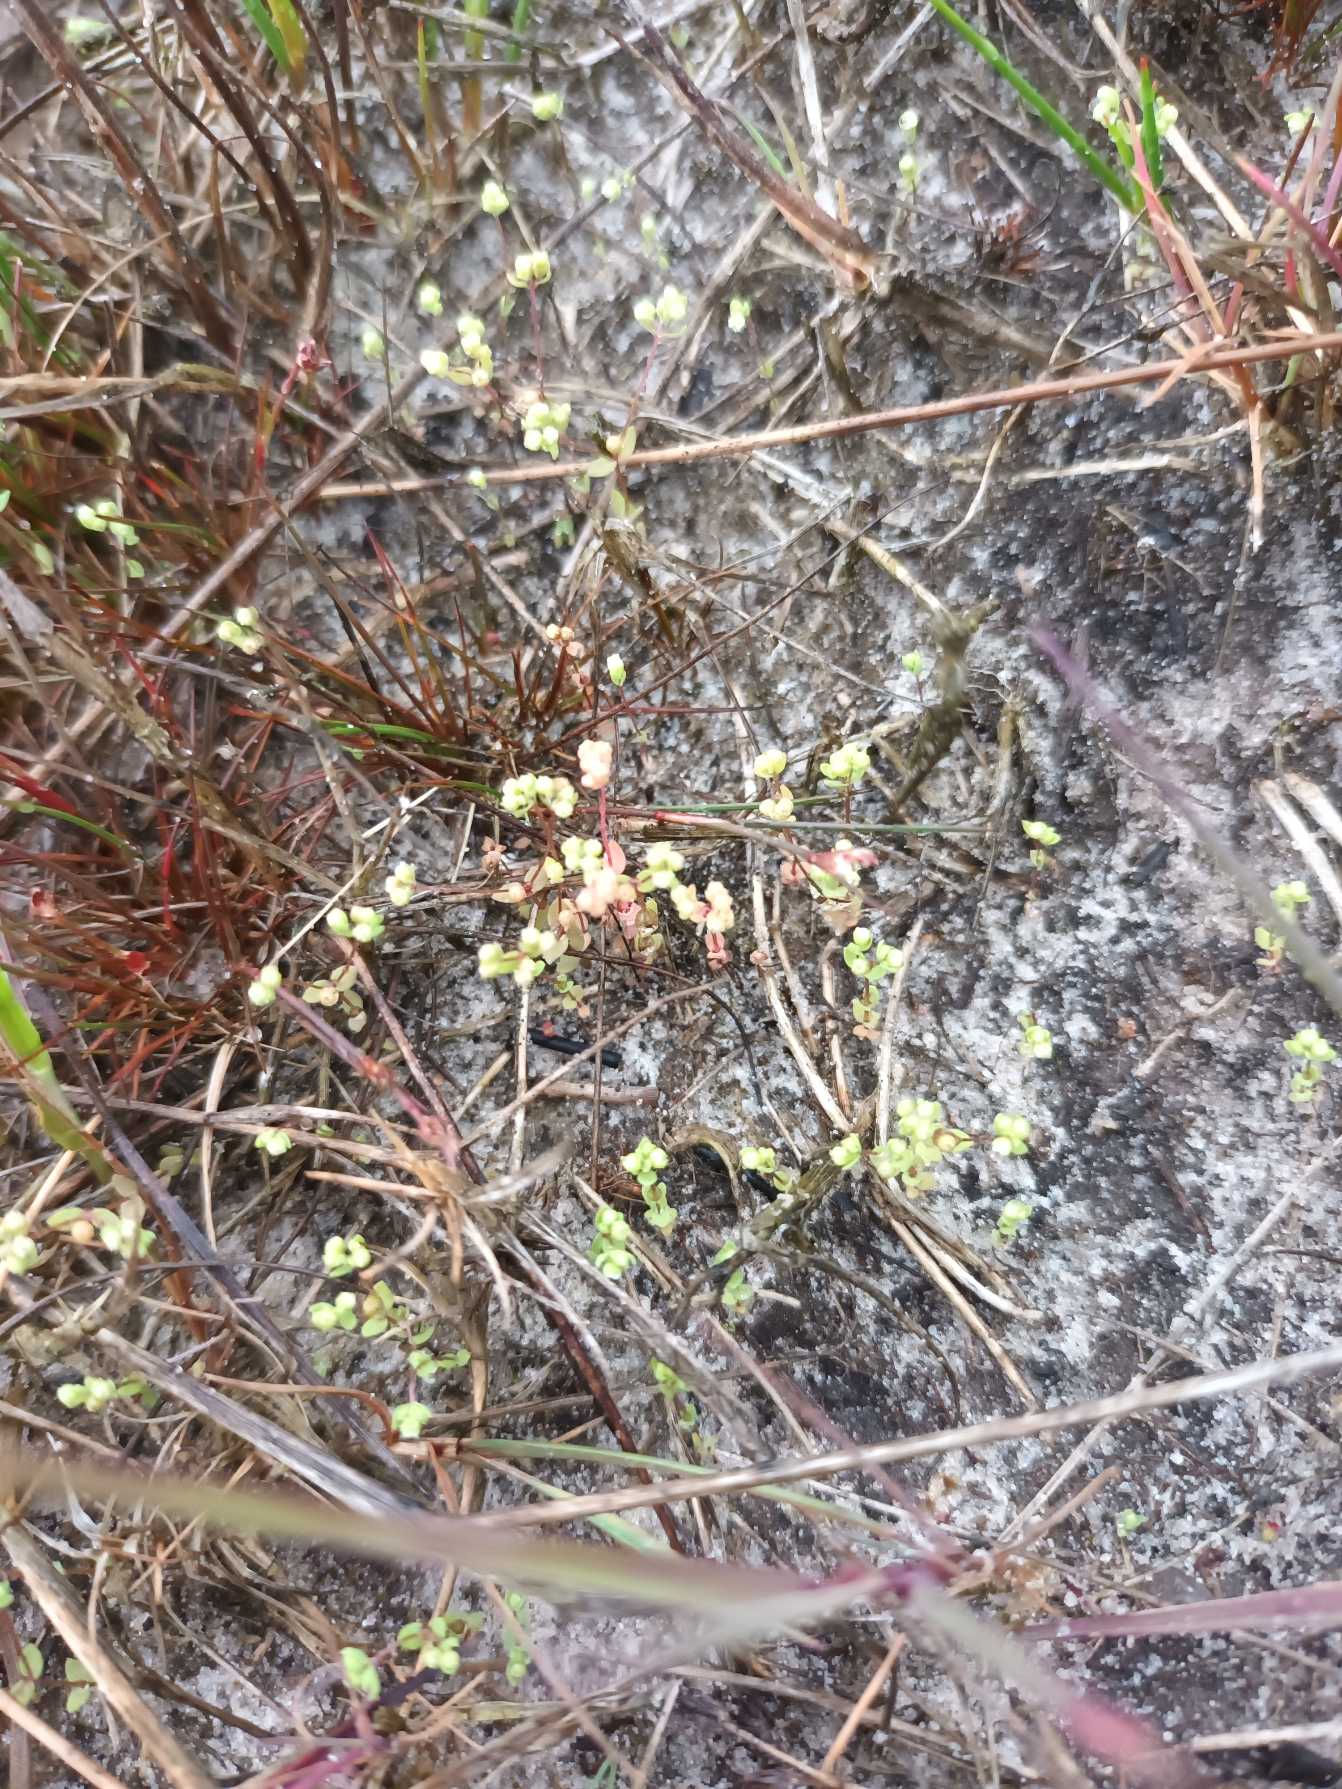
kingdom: Plantae
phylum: Tracheophyta
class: Magnoliopsida
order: Malpighiales
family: Linaceae
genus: Radiola
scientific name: Radiola linoides
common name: Tusindfrø
